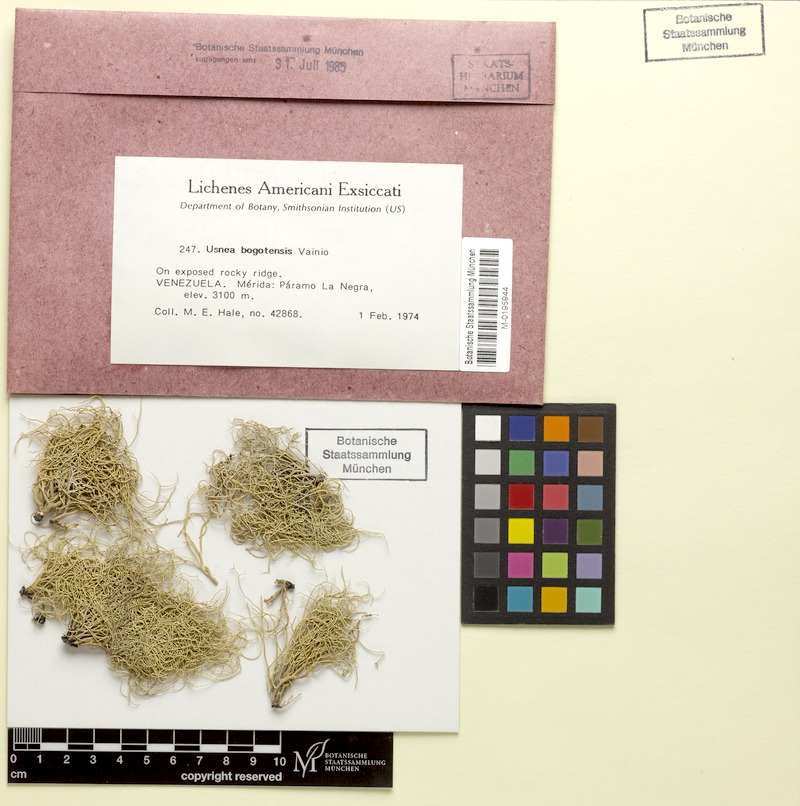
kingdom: Fungi
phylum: Ascomycota
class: Lecanoromycetes
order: Lecanorales
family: Parmeliaceae
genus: Usnea
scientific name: Usnea bogotensis
